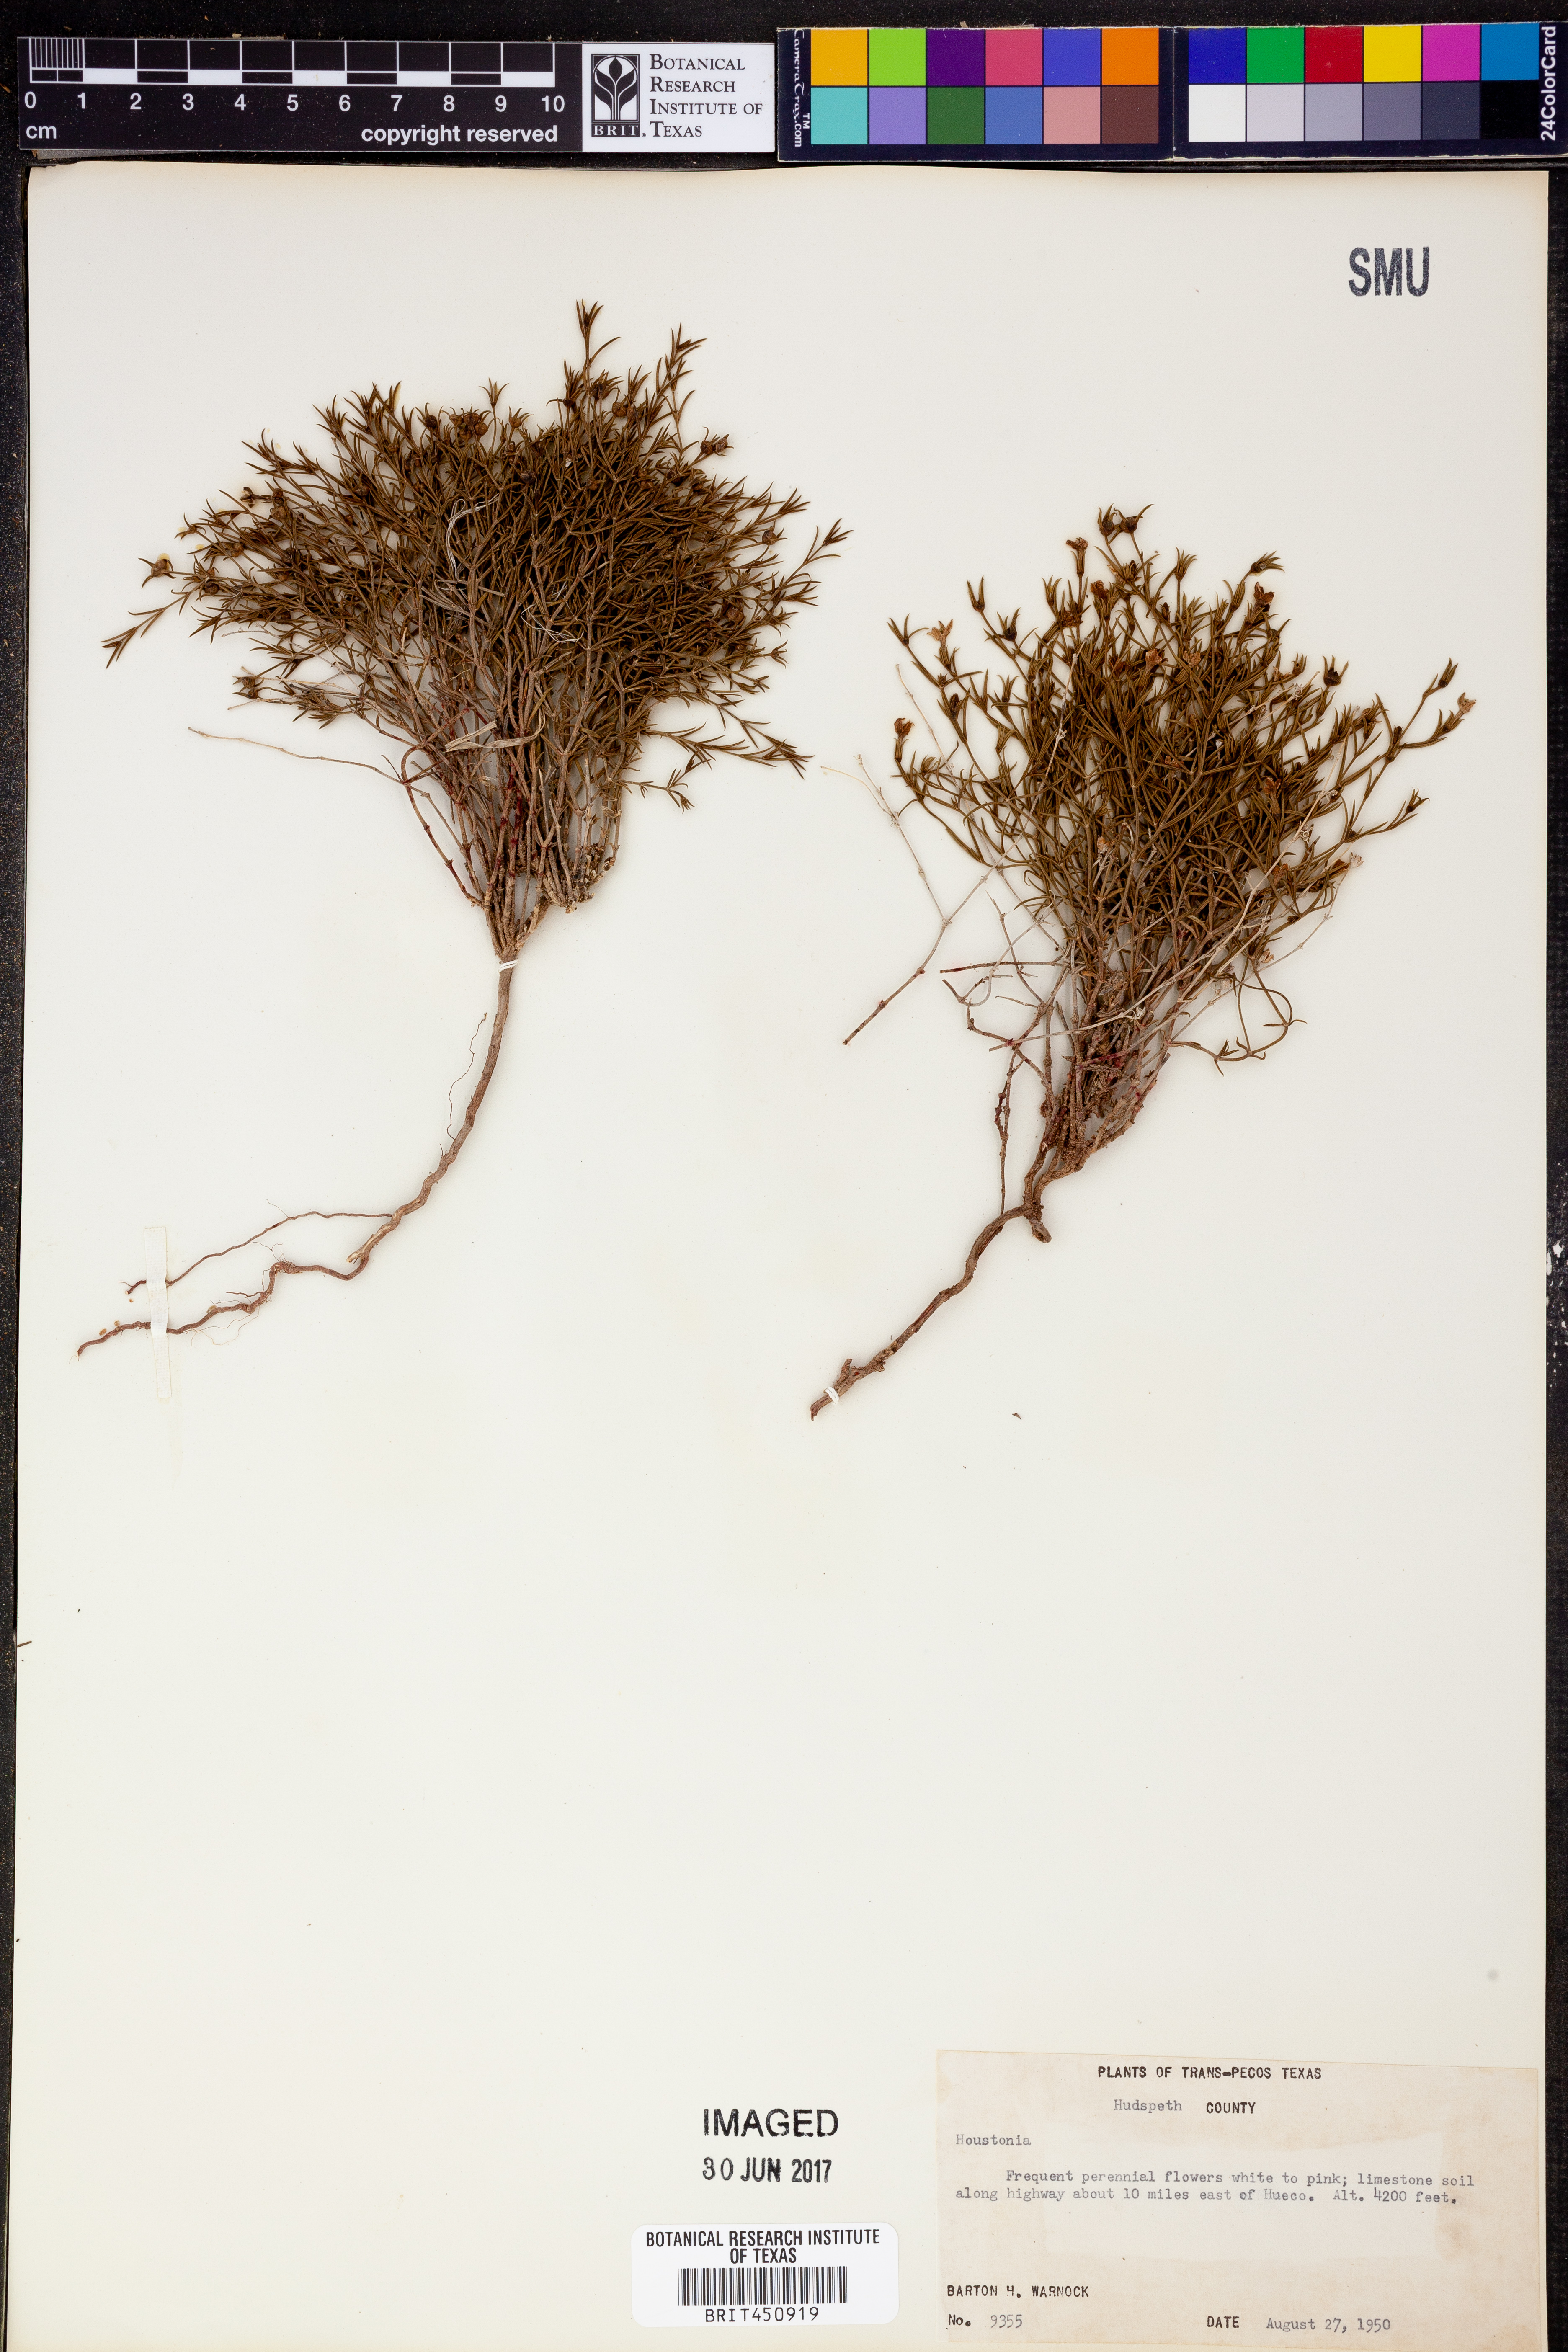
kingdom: Plantae
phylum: Tracheophyta
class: Magnoliopsida
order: Gentianales
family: Rubiaceae
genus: Houstonia
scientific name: Houstonia
